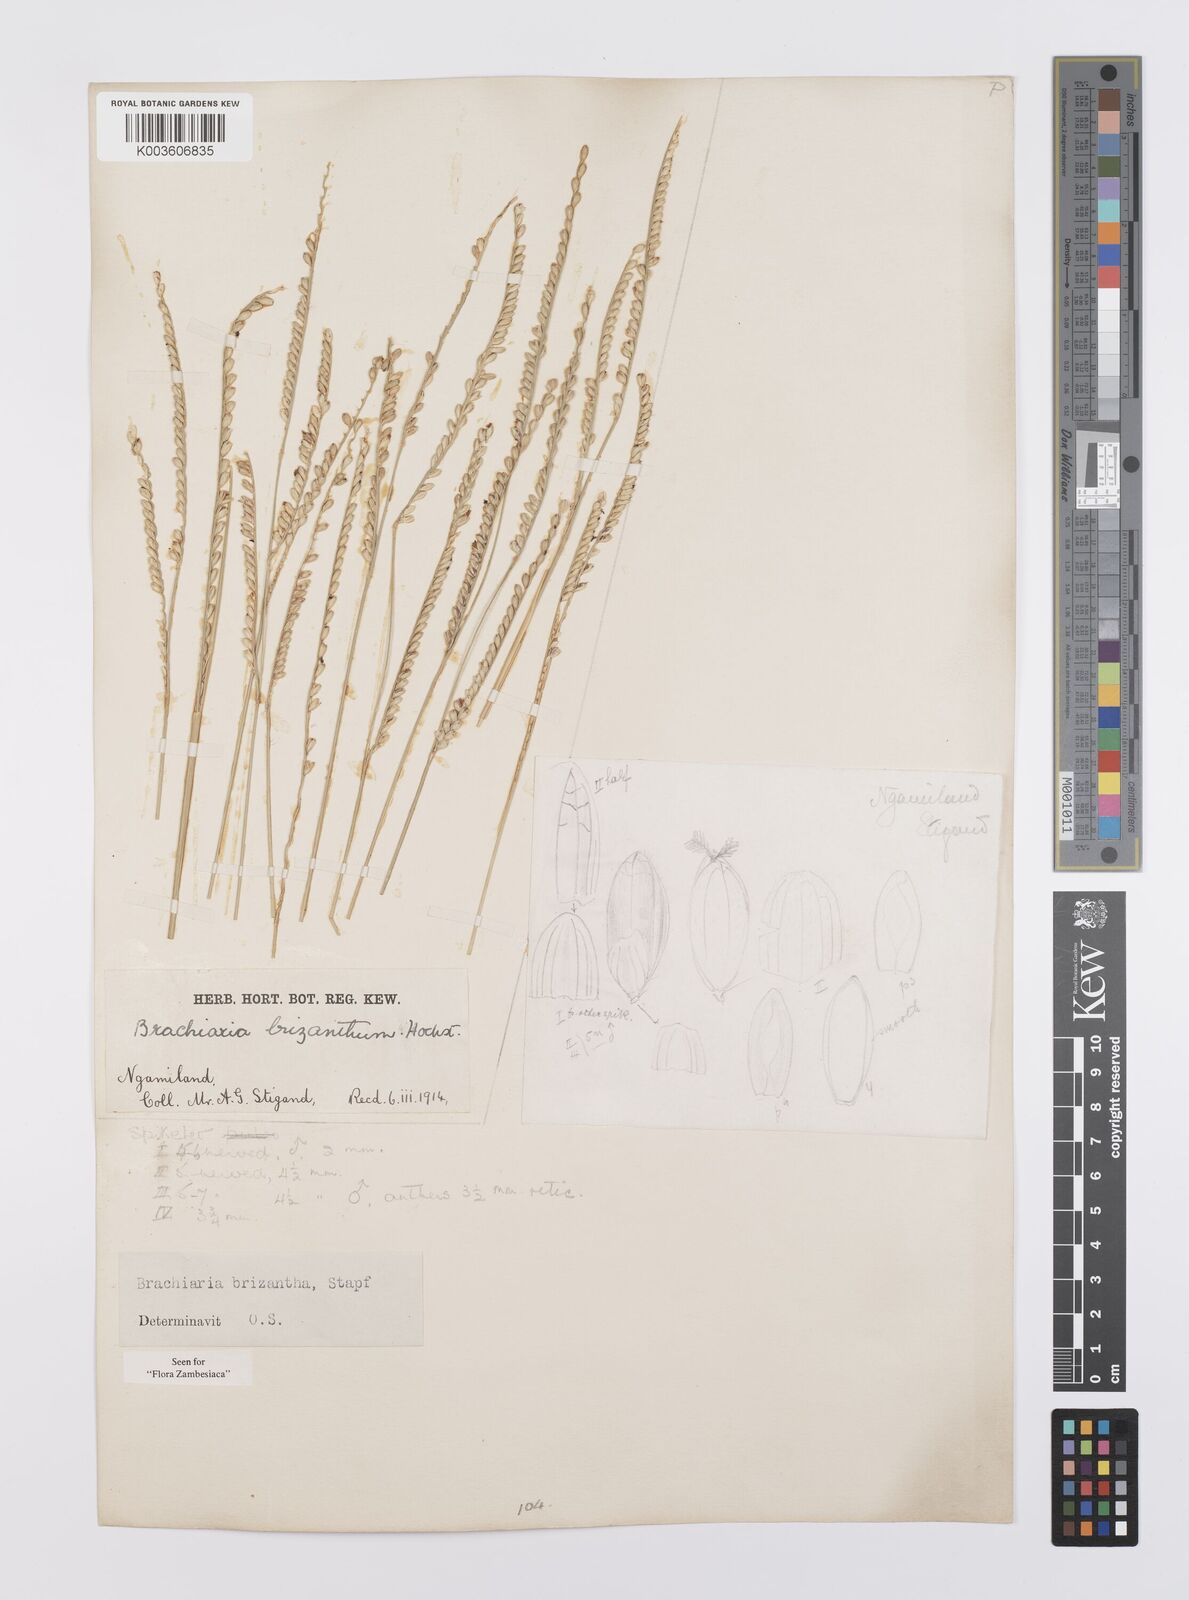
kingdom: Plantae
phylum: Tracheophyta
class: Liliopsida
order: Poales
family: Poaceae
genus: Urochloa
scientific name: Urochloa brizantha
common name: Palisade signalgrass
